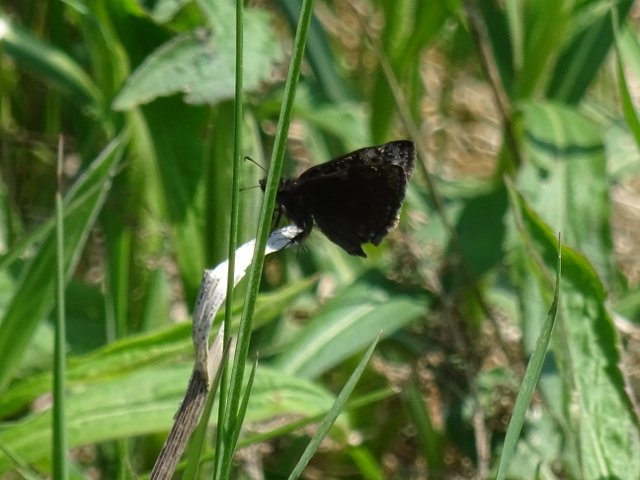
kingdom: Animalia
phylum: Arthropoda
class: Insecta
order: Lepidoptera
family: Hesperiidae
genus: Erynnis
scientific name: Erynnis
